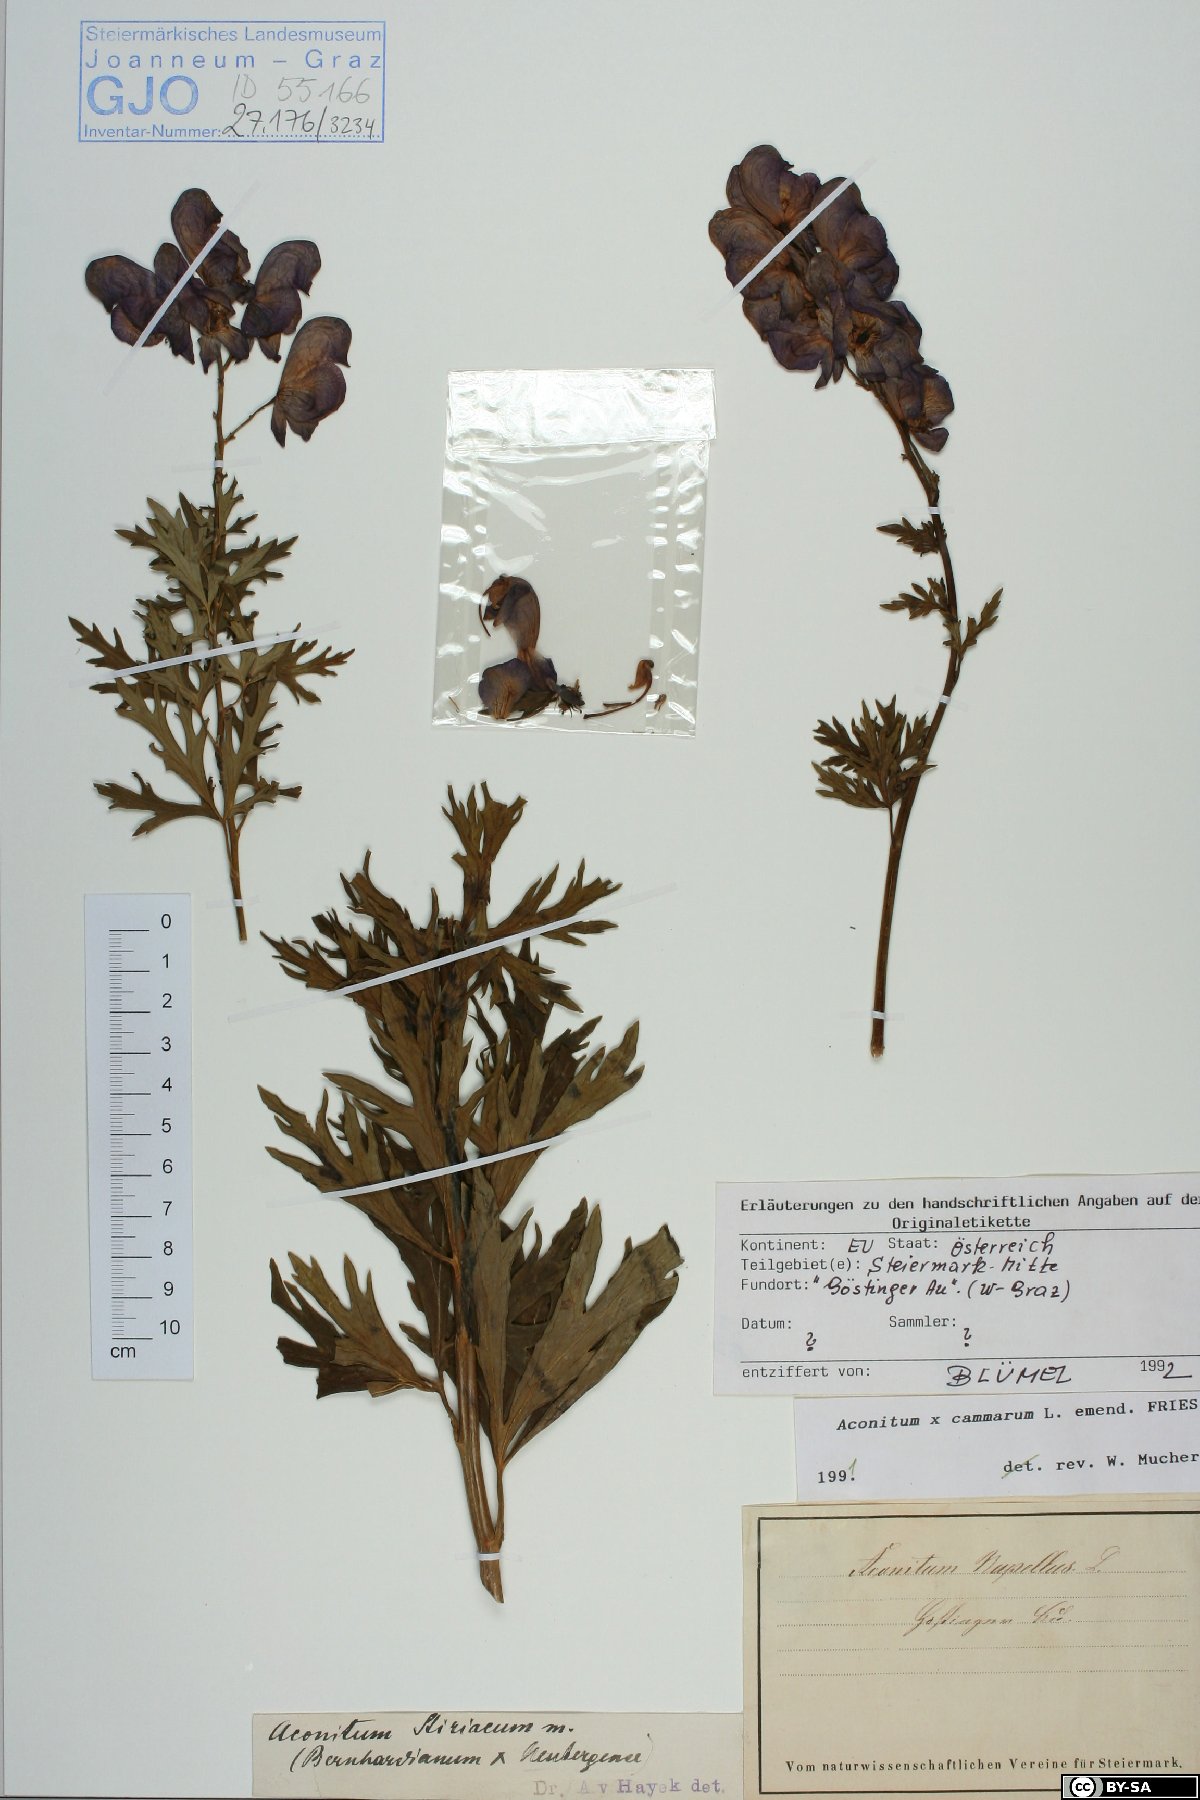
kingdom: Plantae
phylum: Tracheophyta
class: Magnoliopsida
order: Ranunculales
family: Ranunculaceae
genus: Aconitum
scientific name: Aconitum cammarum
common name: Hybrid monk's-hood
